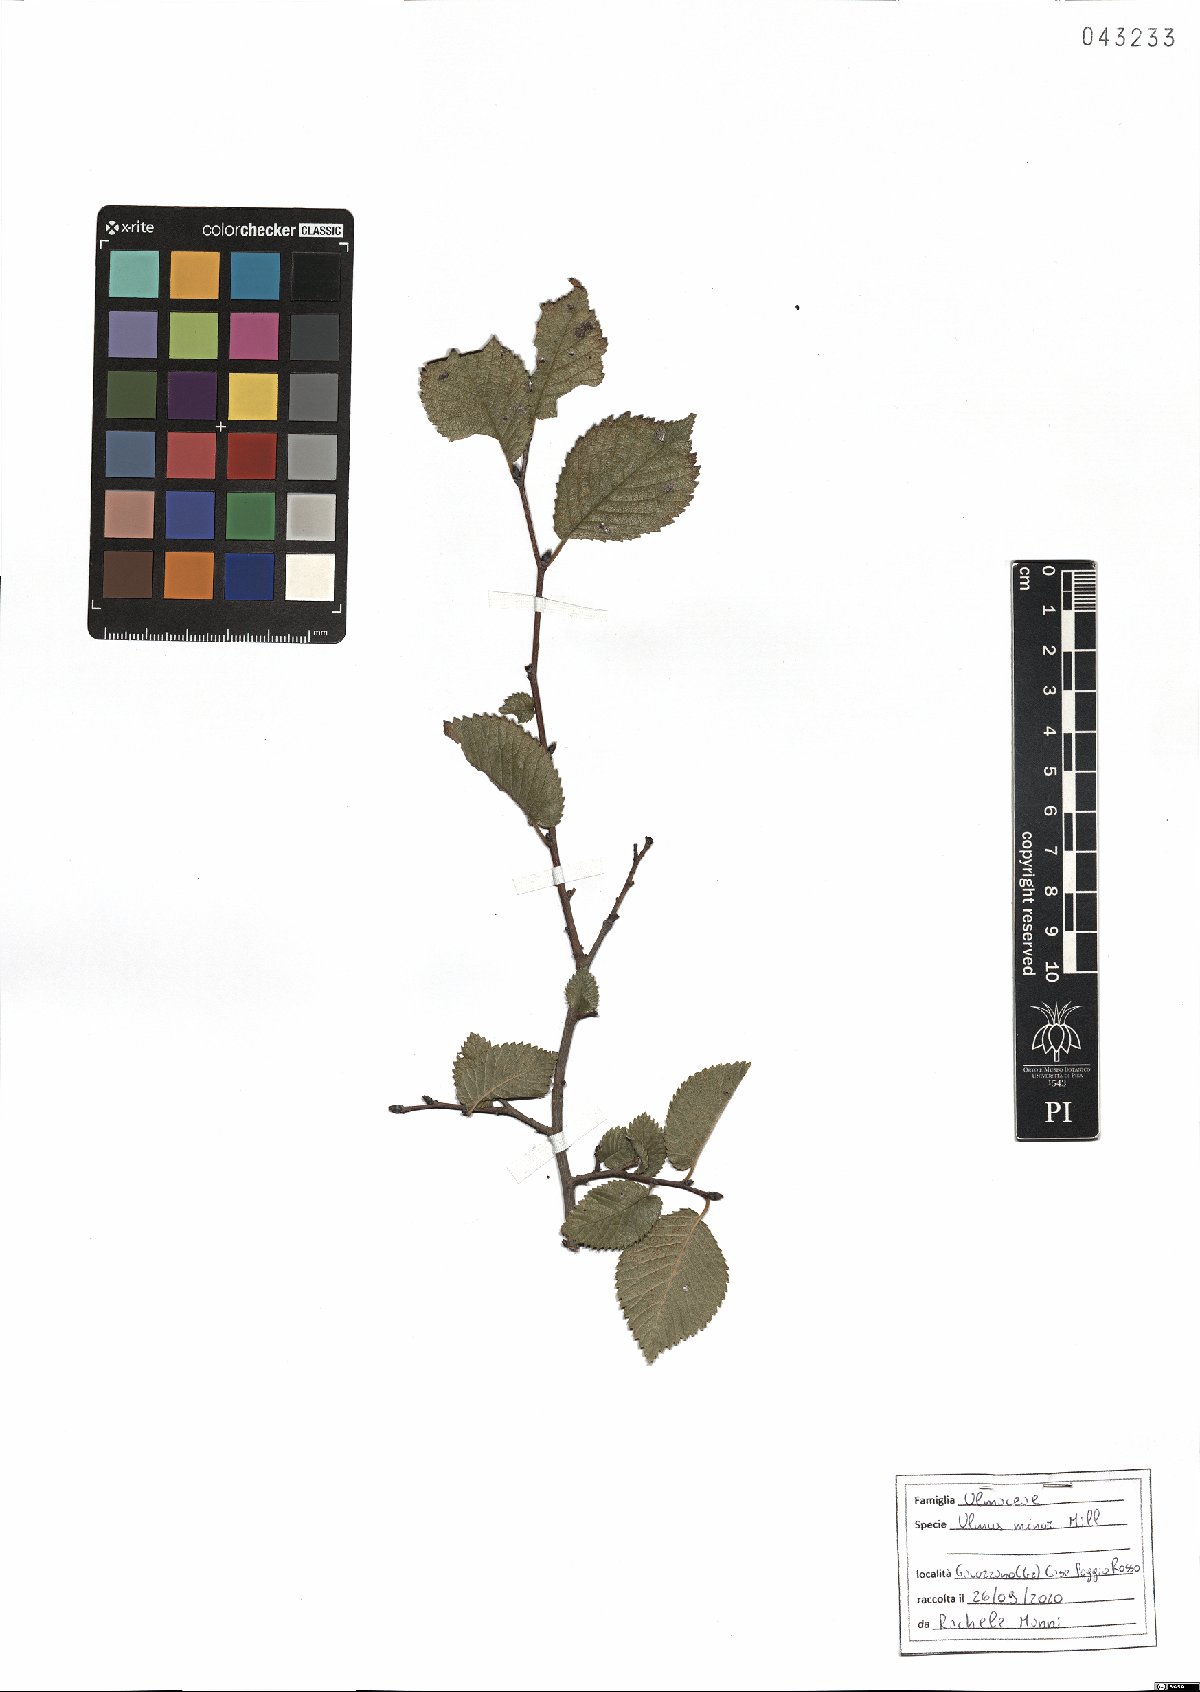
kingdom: Plantae
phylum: Tracheophyta
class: Magnoliopsida
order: Rosales
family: Ulmaceae
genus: Ulmus
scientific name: Ulmus minor
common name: Small-leaved elm
